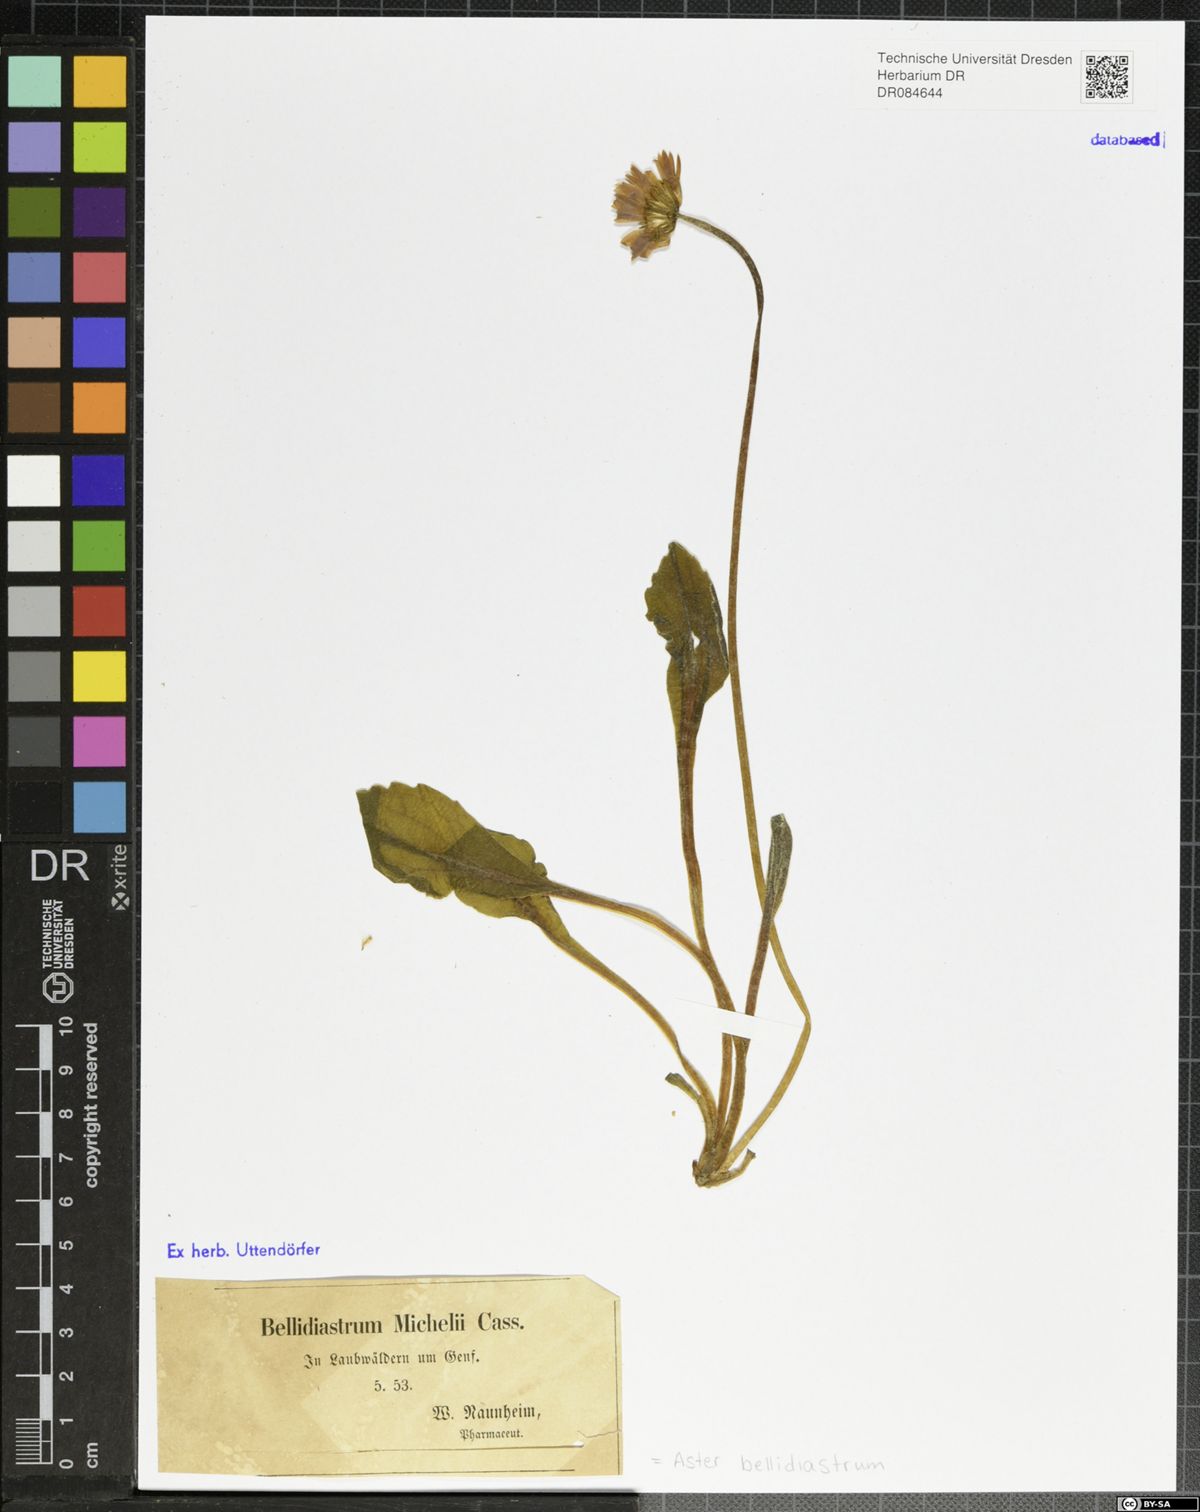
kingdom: Plantae
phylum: Tracheophyta
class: Magnoliopsida
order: Asterales
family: Asteraceae
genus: Bellidiastrum
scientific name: Bellidiastrum michelii
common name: Daisy-star aster
